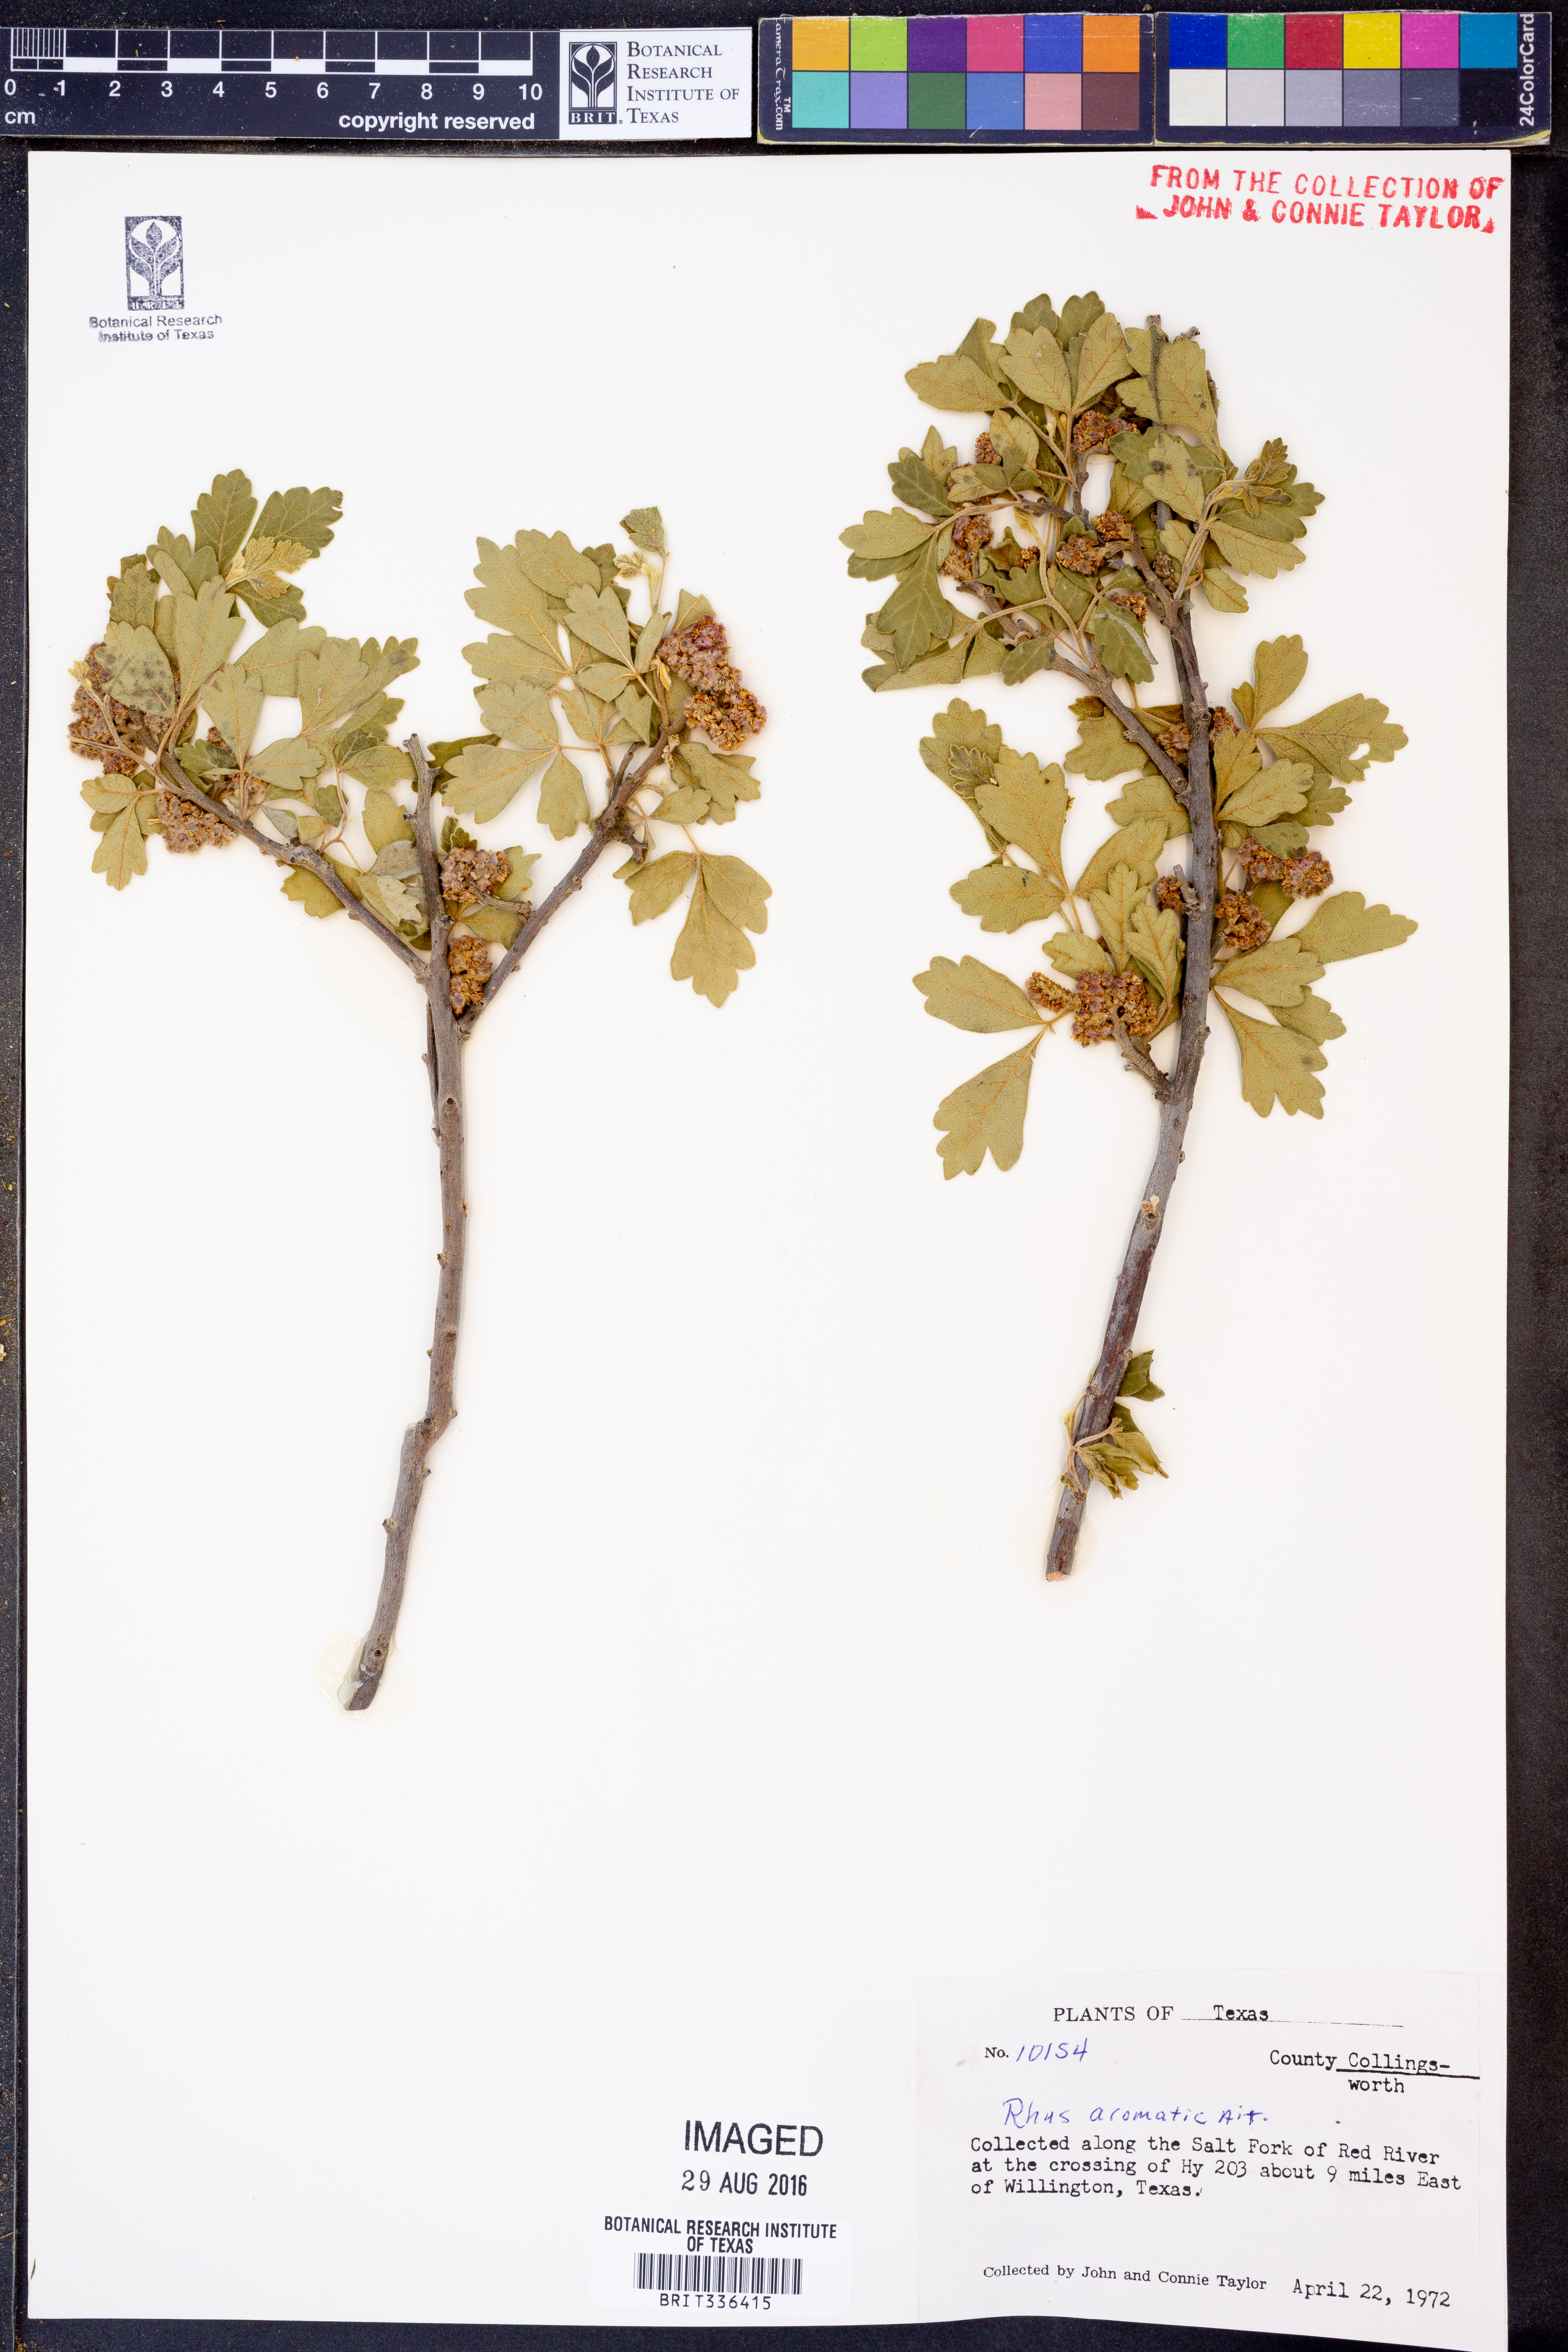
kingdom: Plantae
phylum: Tracheophyta
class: Magnoliopsida
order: Sapindales
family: Anacardiaceae
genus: Rhus
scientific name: Rhus aromatica
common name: Aromatic sumac
